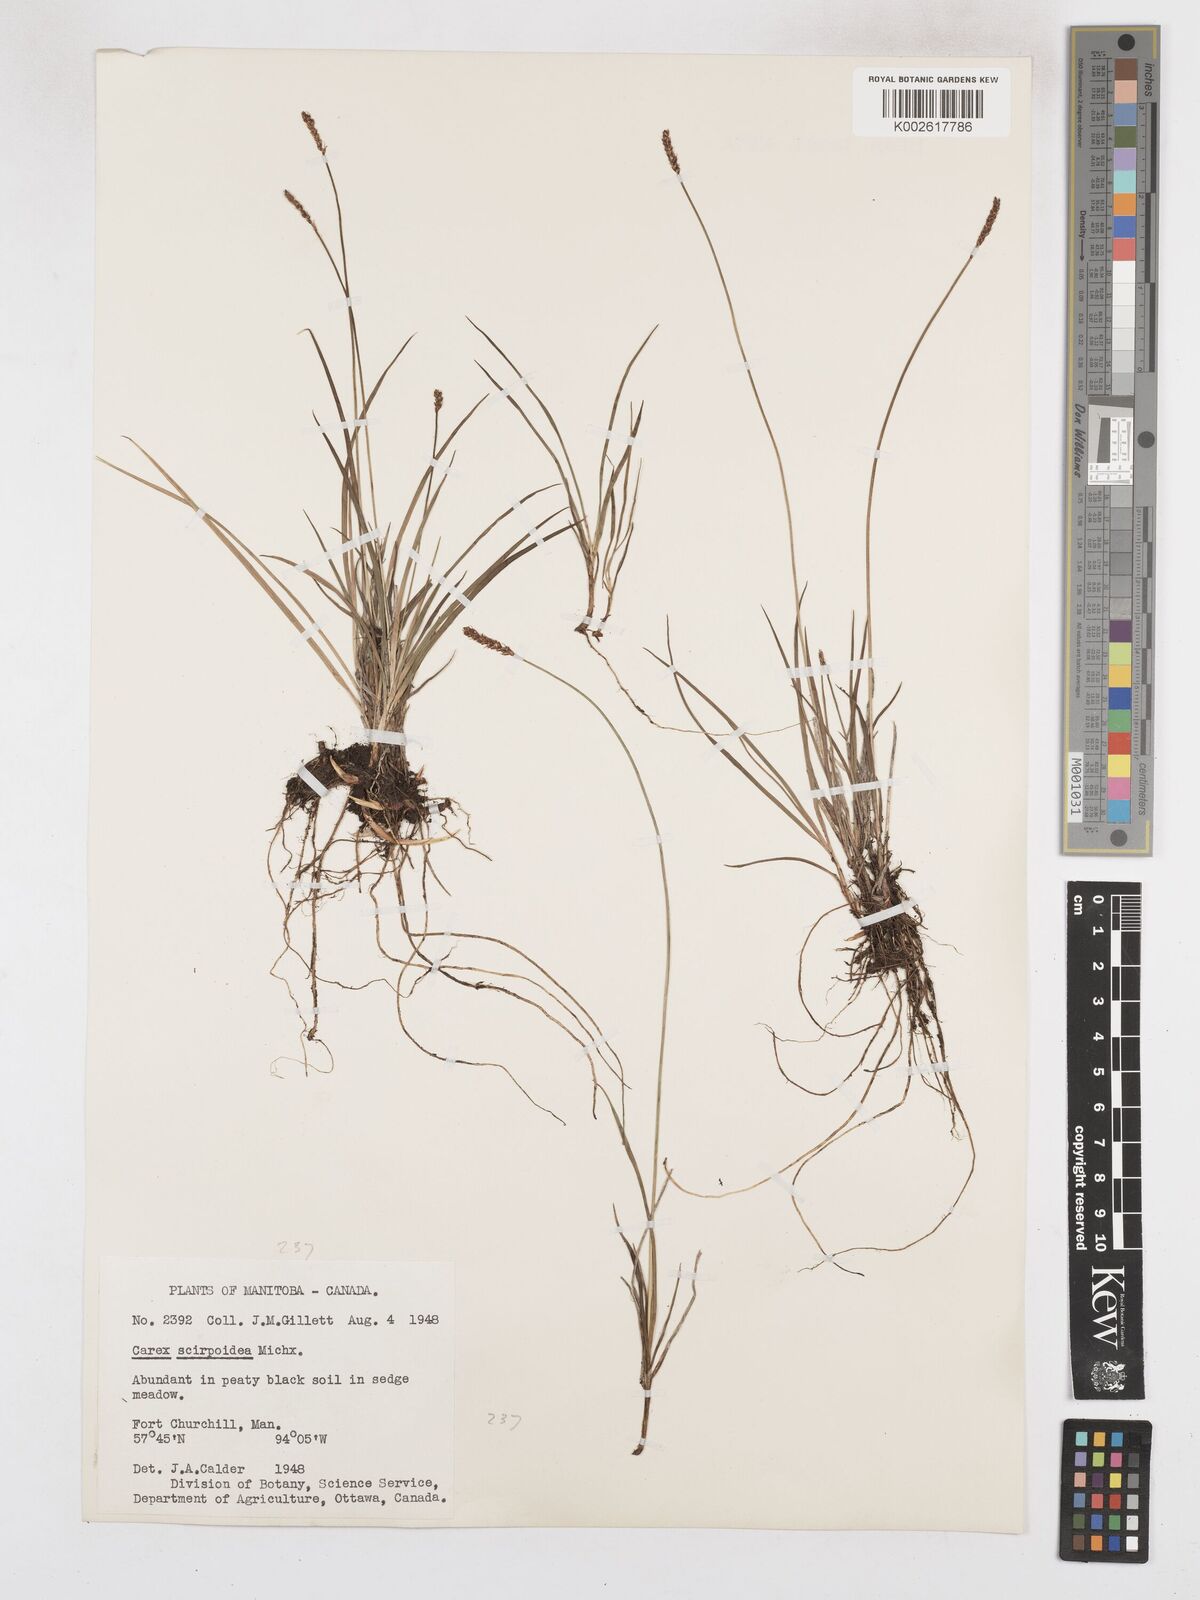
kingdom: Plantae
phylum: Tracheophyta
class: Liliopsida
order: Poales
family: Cyperaceae
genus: Carex
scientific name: Carex scirpoidea
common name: Canada single-spike sedge
